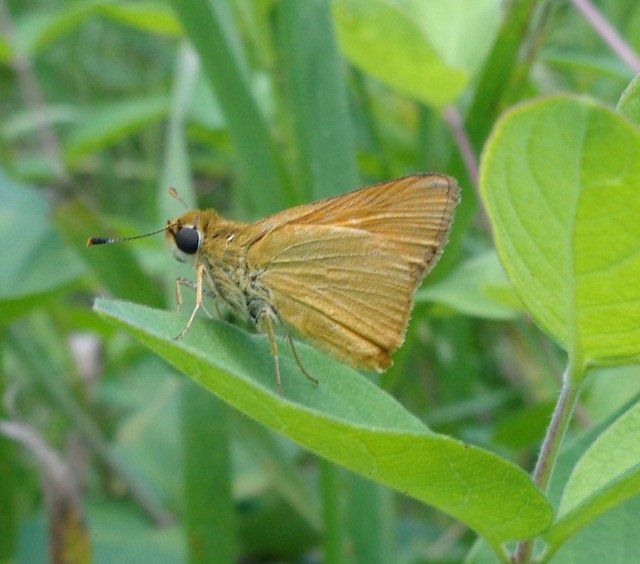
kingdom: Animalia
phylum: Arthropoda
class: Insecta
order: Lepidoptera
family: Hesperiidae
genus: Atrytone
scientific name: Atrytone delaware
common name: Delaware Skipper
